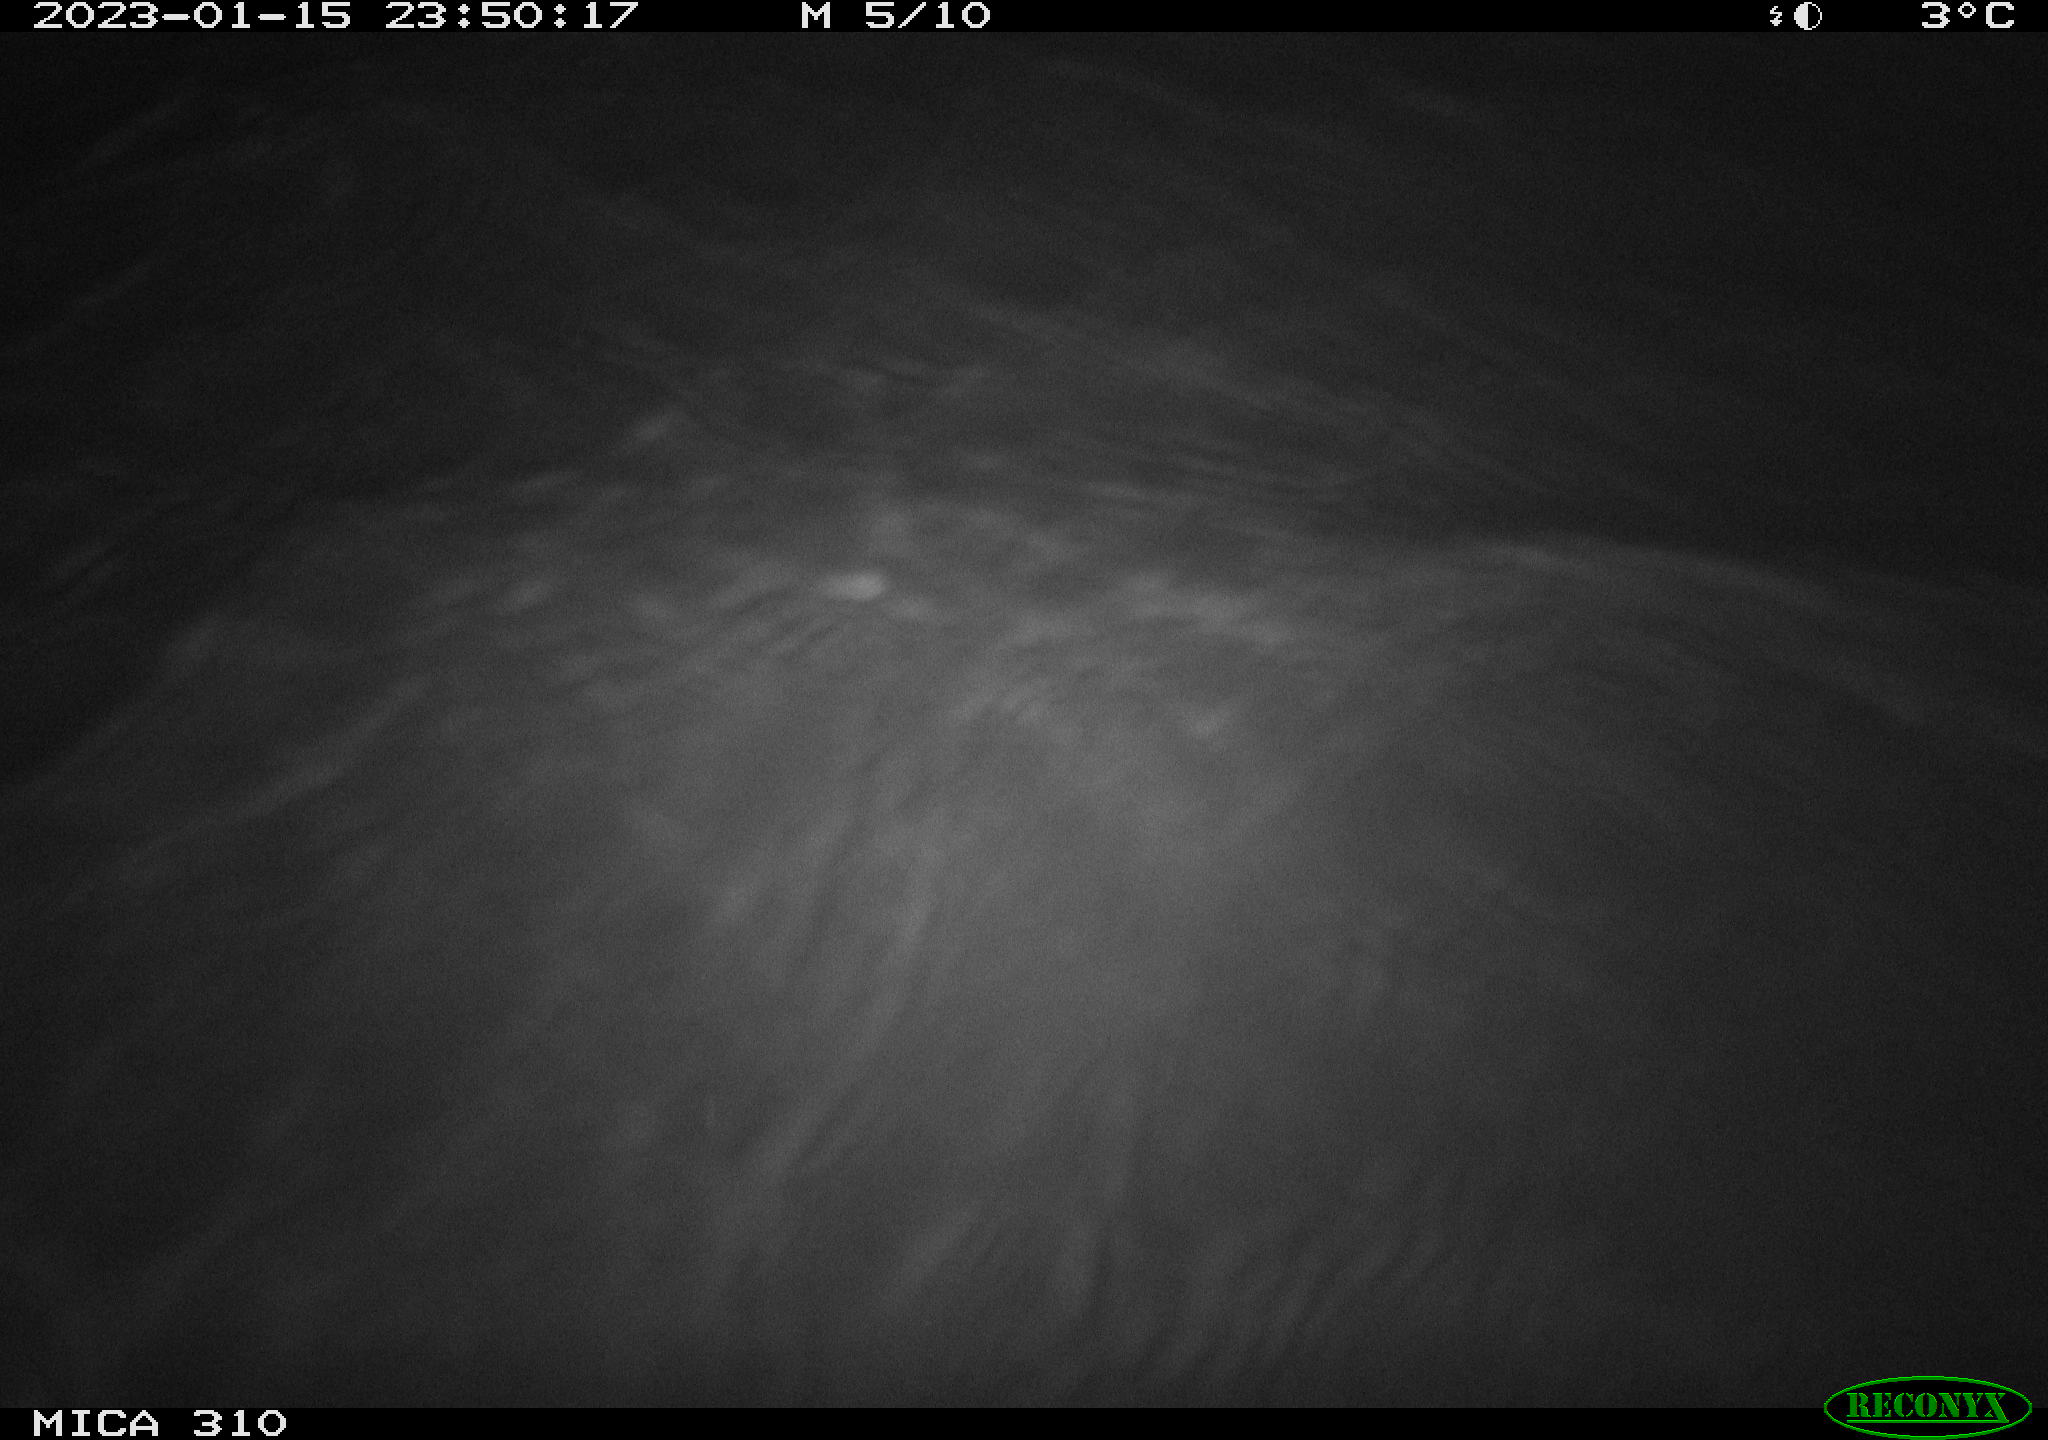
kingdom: Animalia
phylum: Chordata
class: Mammalia
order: Rodentia
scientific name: Rodentia
